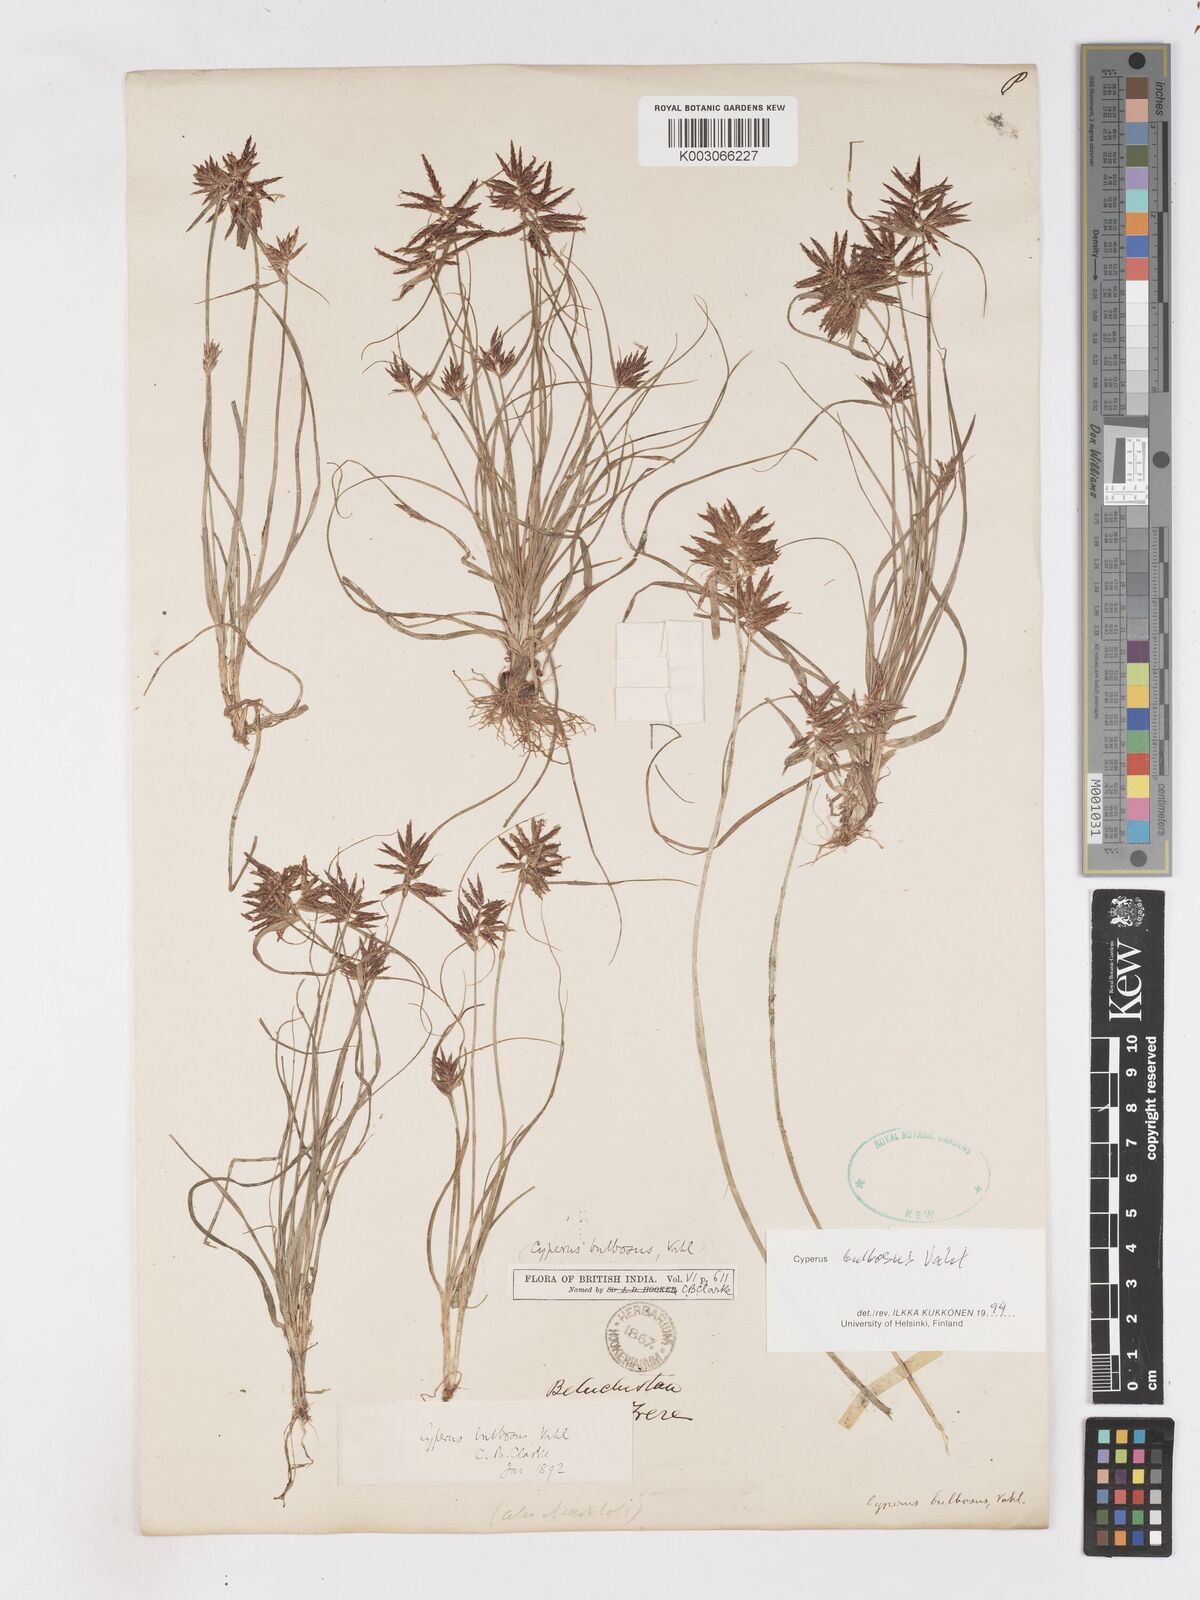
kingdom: Plantae
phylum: Tracheophyta
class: Liliopsida
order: Poales
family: Cyperaceae
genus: Cyperus
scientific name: Cyperus bulbosus
